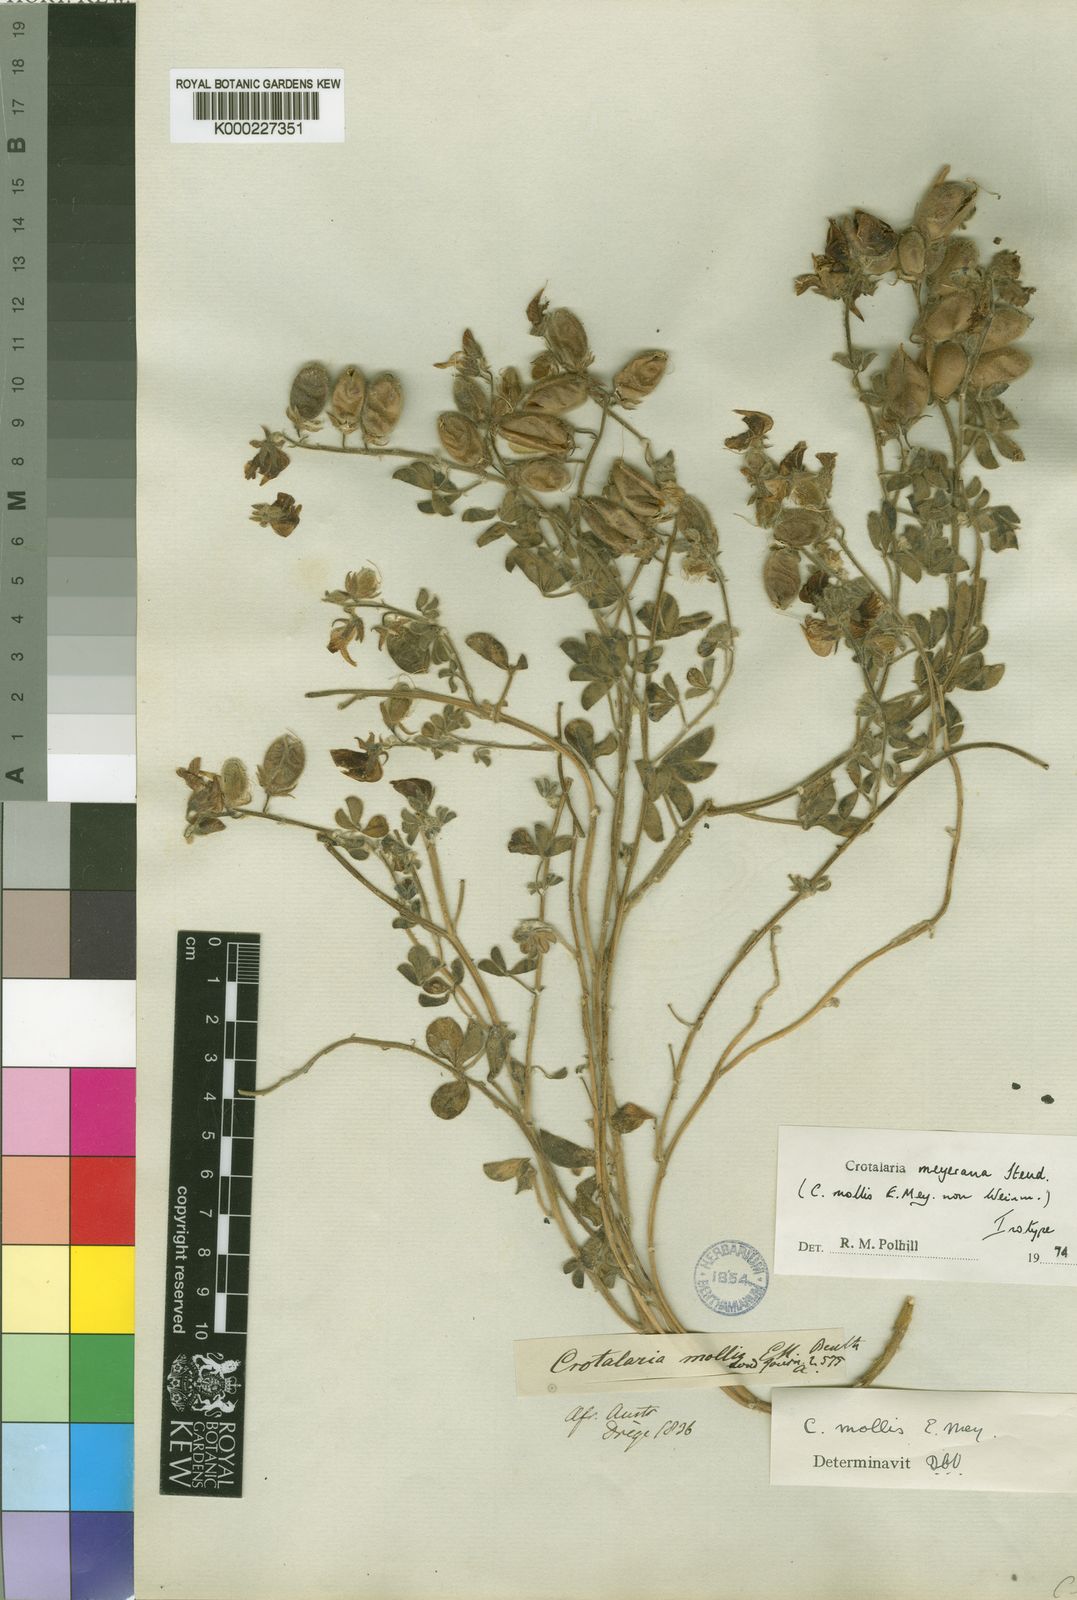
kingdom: Plantae
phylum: Tracheophyta
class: Magnoliopsida
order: Fabales
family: Fabaceae
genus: Crotalaria
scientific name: Crotalaria meyeriana
